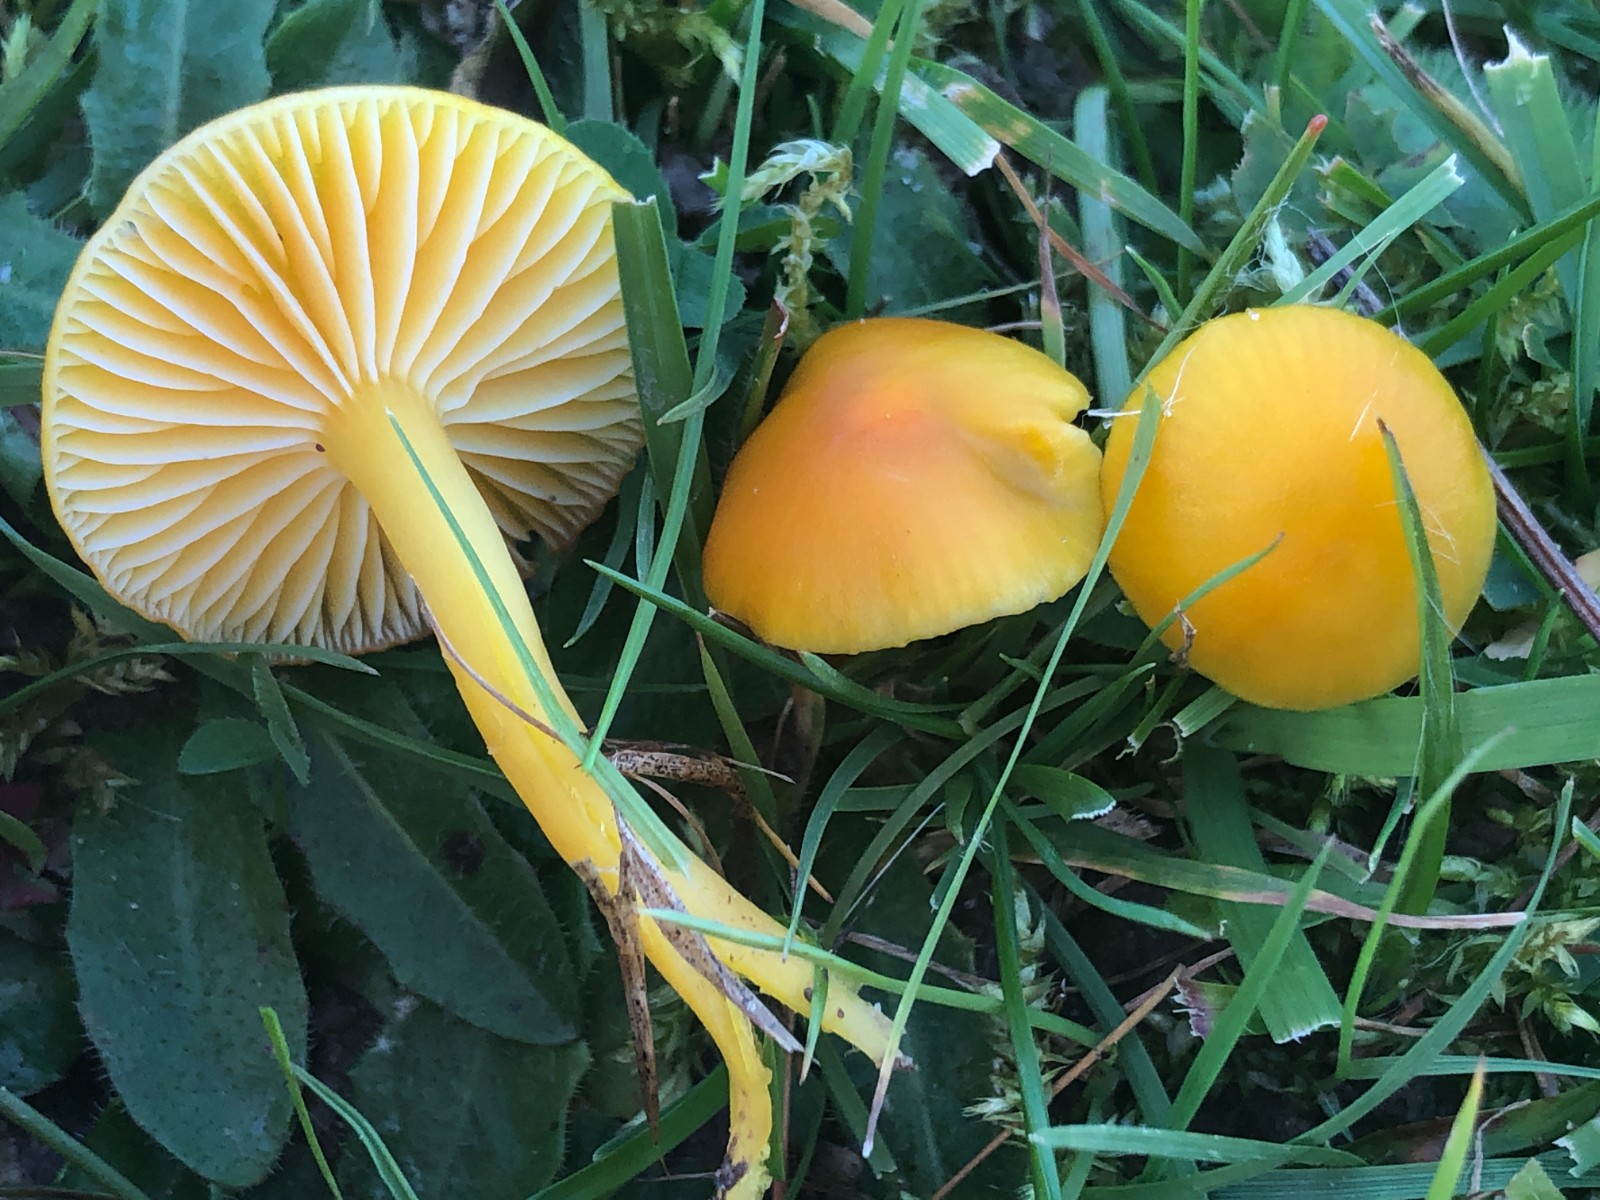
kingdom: Fungi
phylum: Basidiomycota
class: Agaricomycetes
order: Agaricales
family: Hygrophoraceae
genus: Hygrocybe
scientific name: Hygrocybe ceracea
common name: voksgul vokshat
